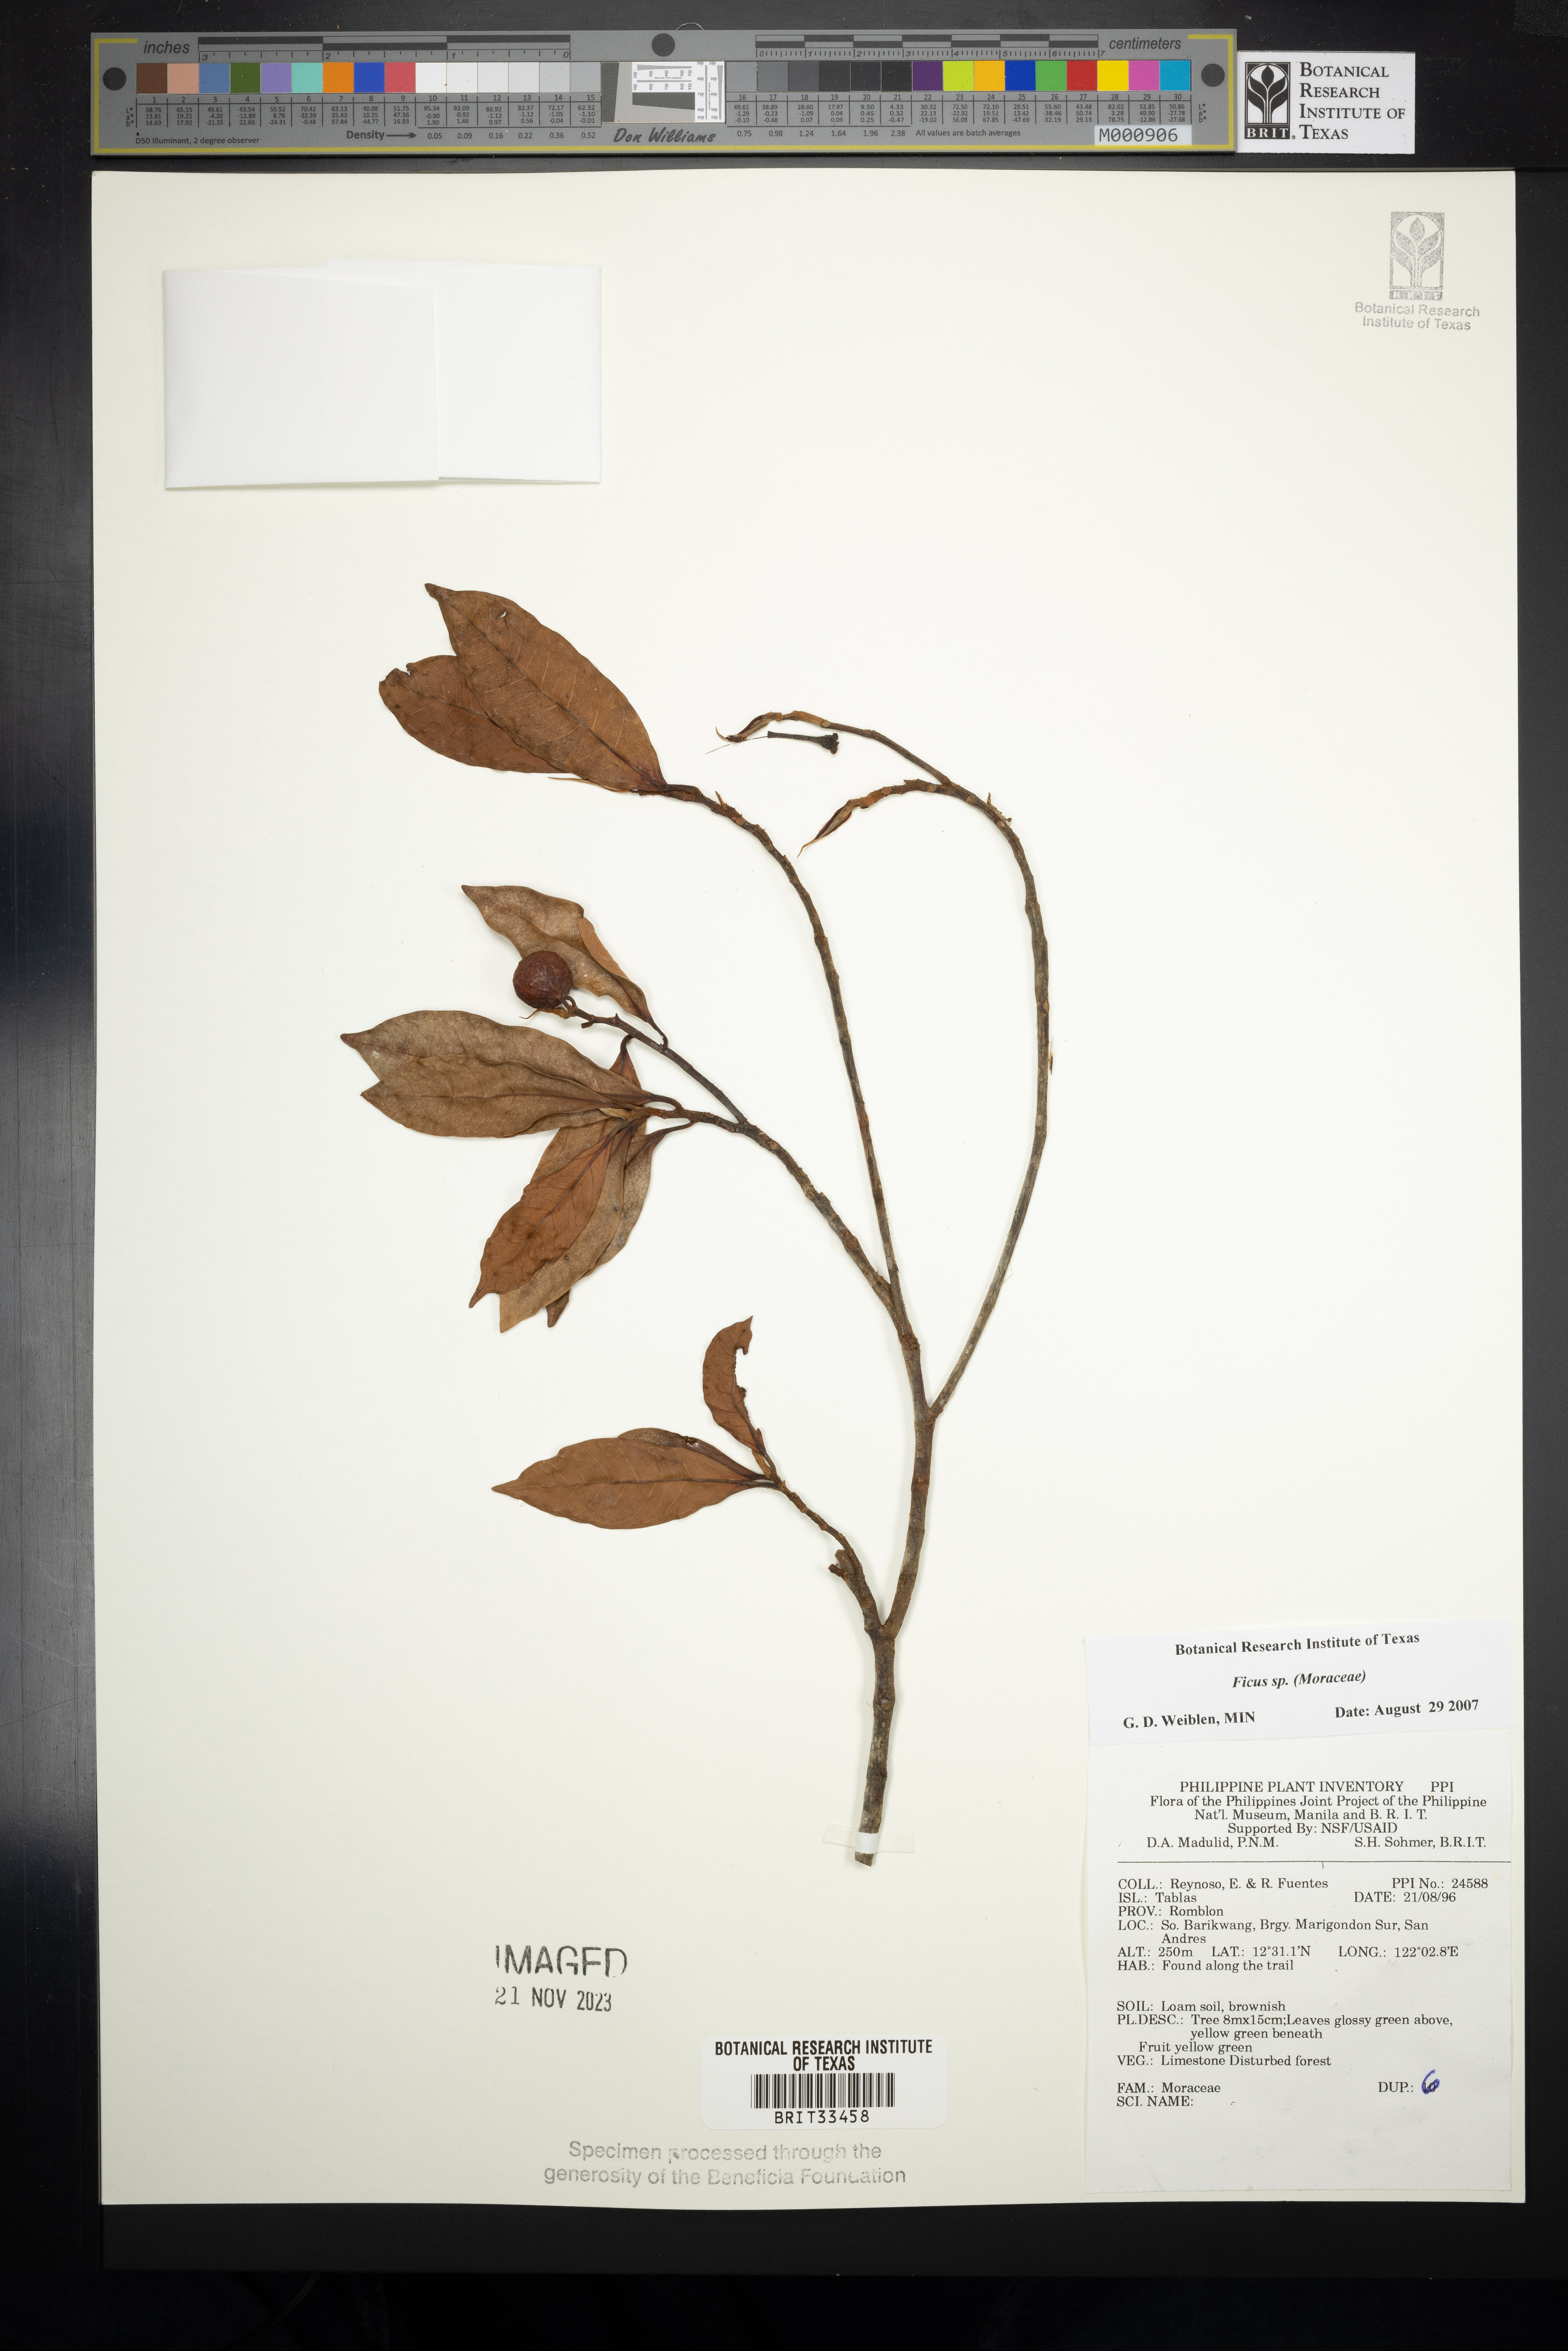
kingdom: Plantae
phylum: Tracheophyta
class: Magnoliopsida
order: Rosales
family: Moraceae
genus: Ficus
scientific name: Ficus
